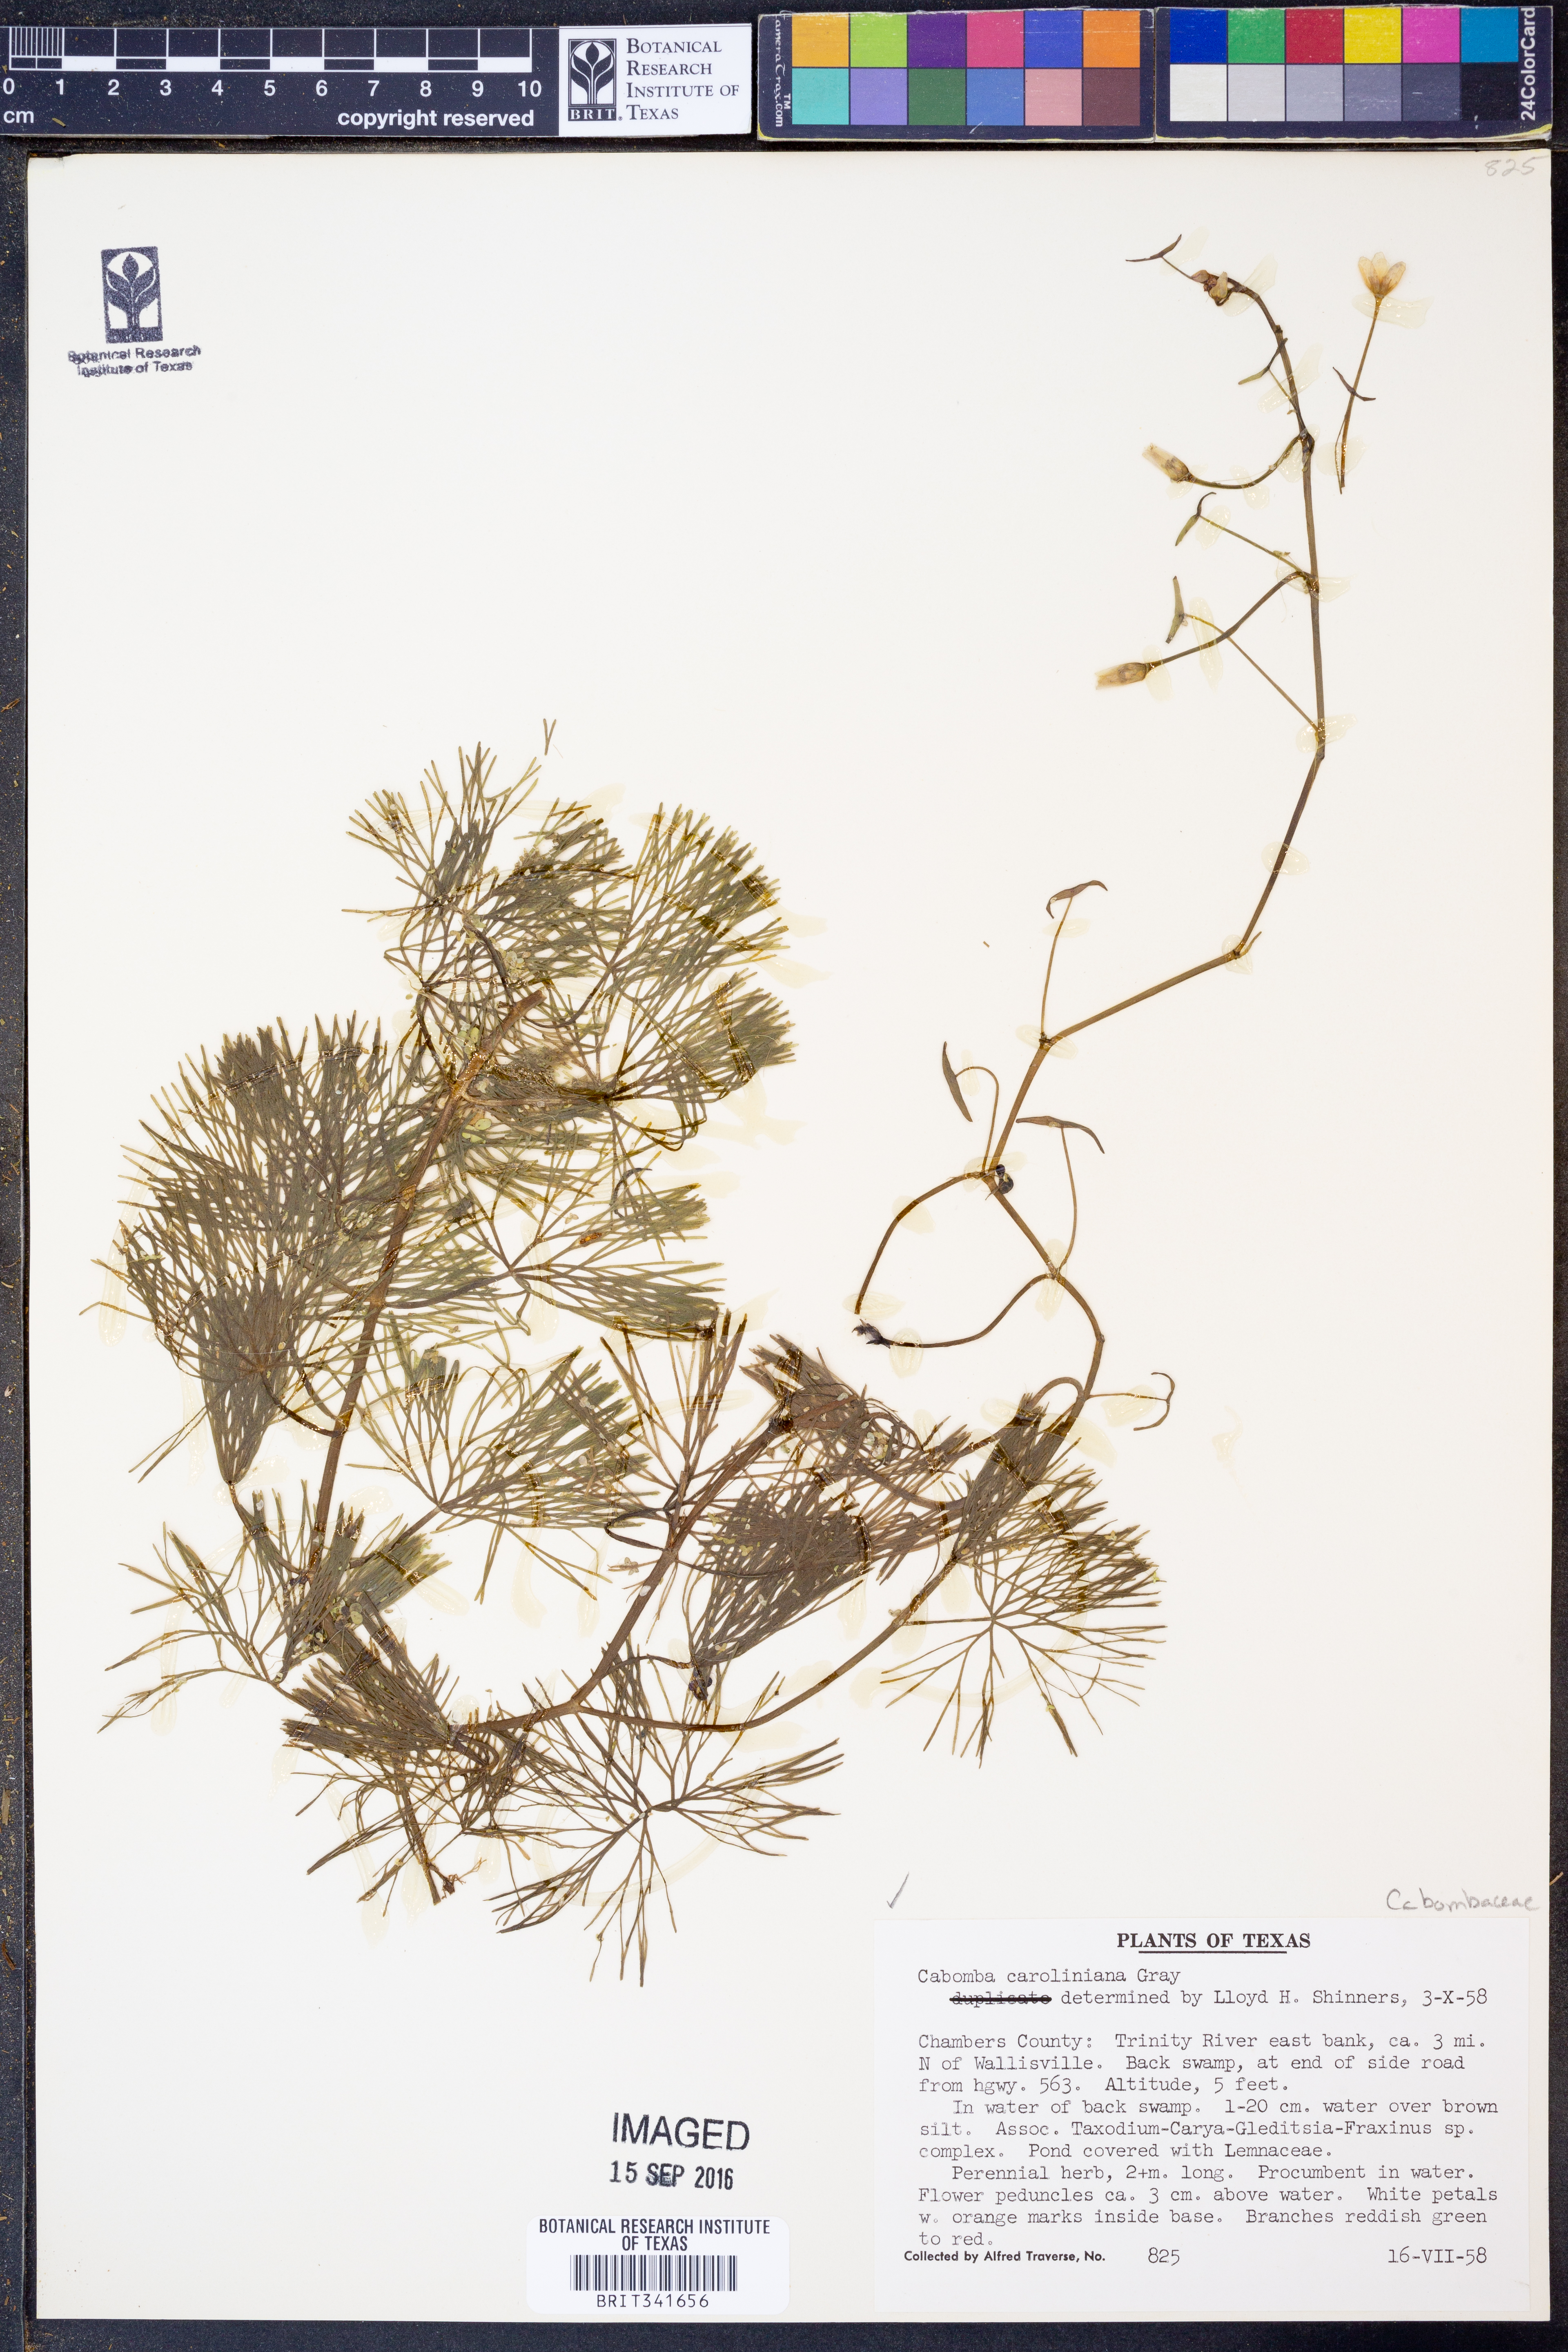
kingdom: Plantae
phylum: Tracheophyta
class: Magnoliopsida
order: Nymphaeales
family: Cabombaceae
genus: Cabomba
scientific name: Cabomba caroliniana
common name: Fanwort
